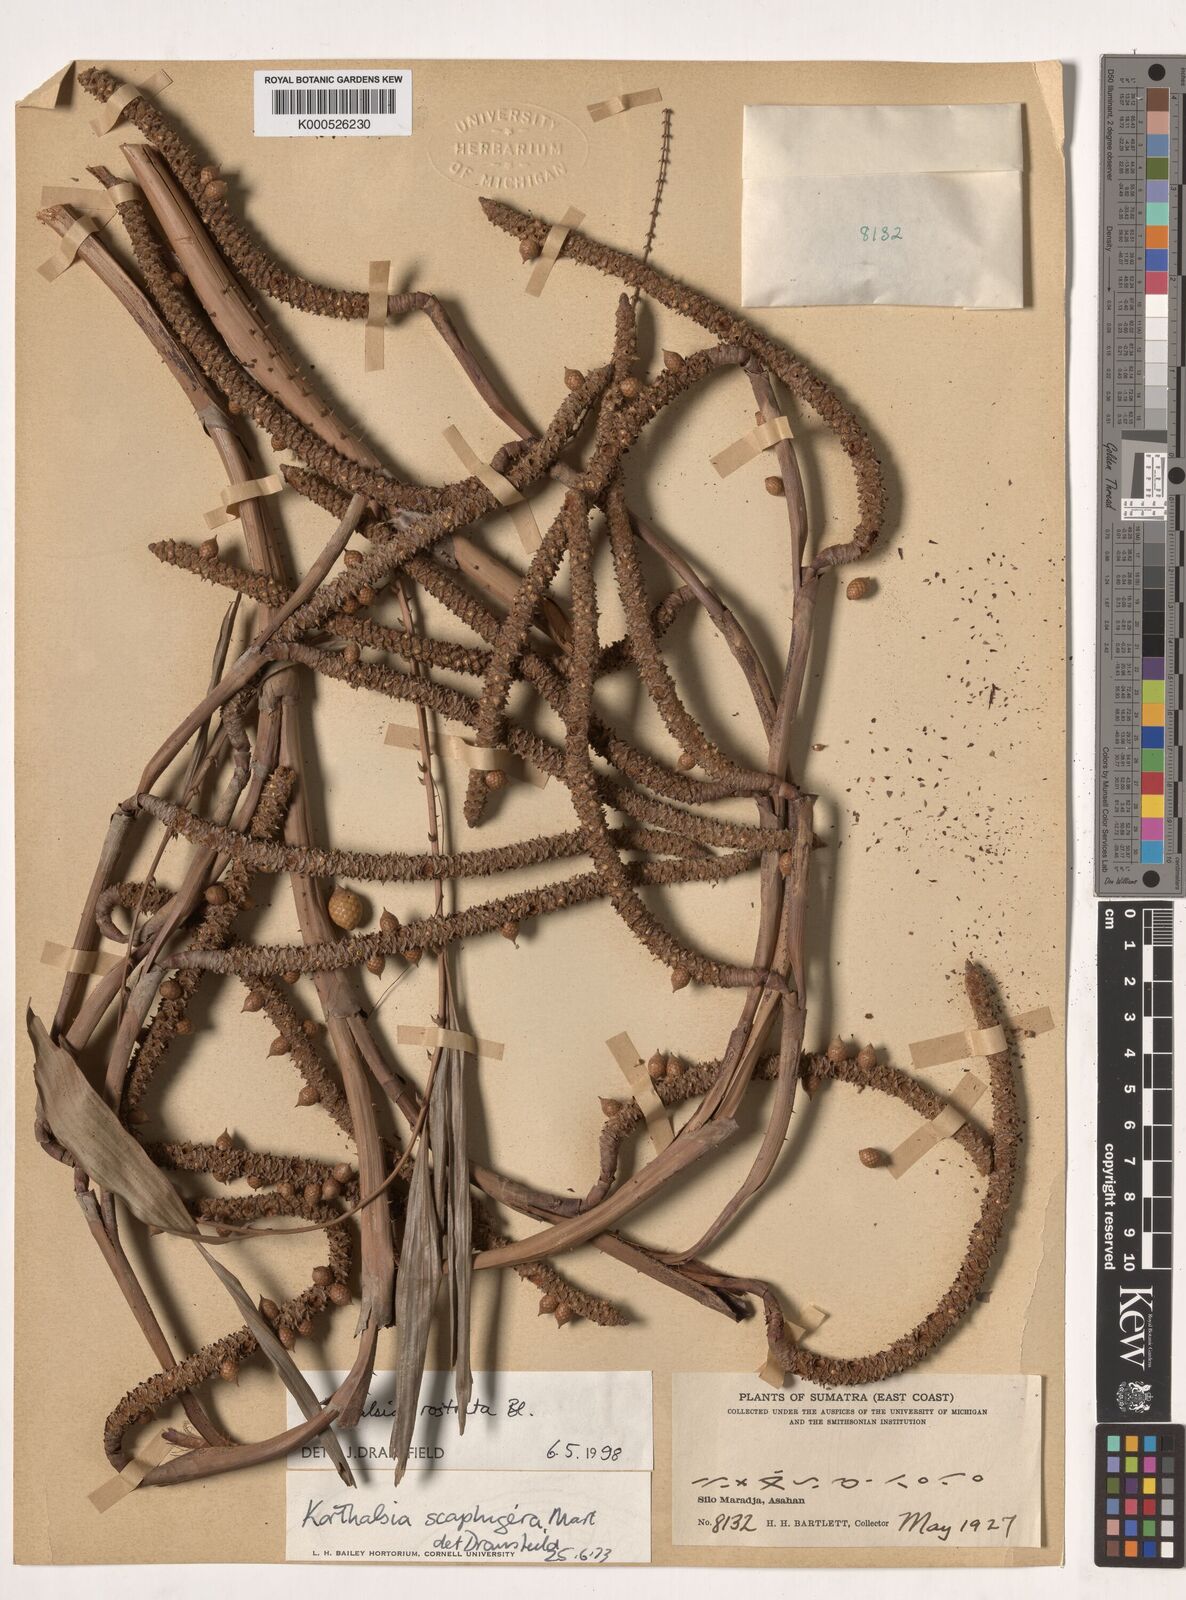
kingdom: Plantae
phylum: Tracheophyta
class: Liliopsida
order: Arecales
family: Arecaceae
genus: Korthalsia
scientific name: Korthalsia rostrata
